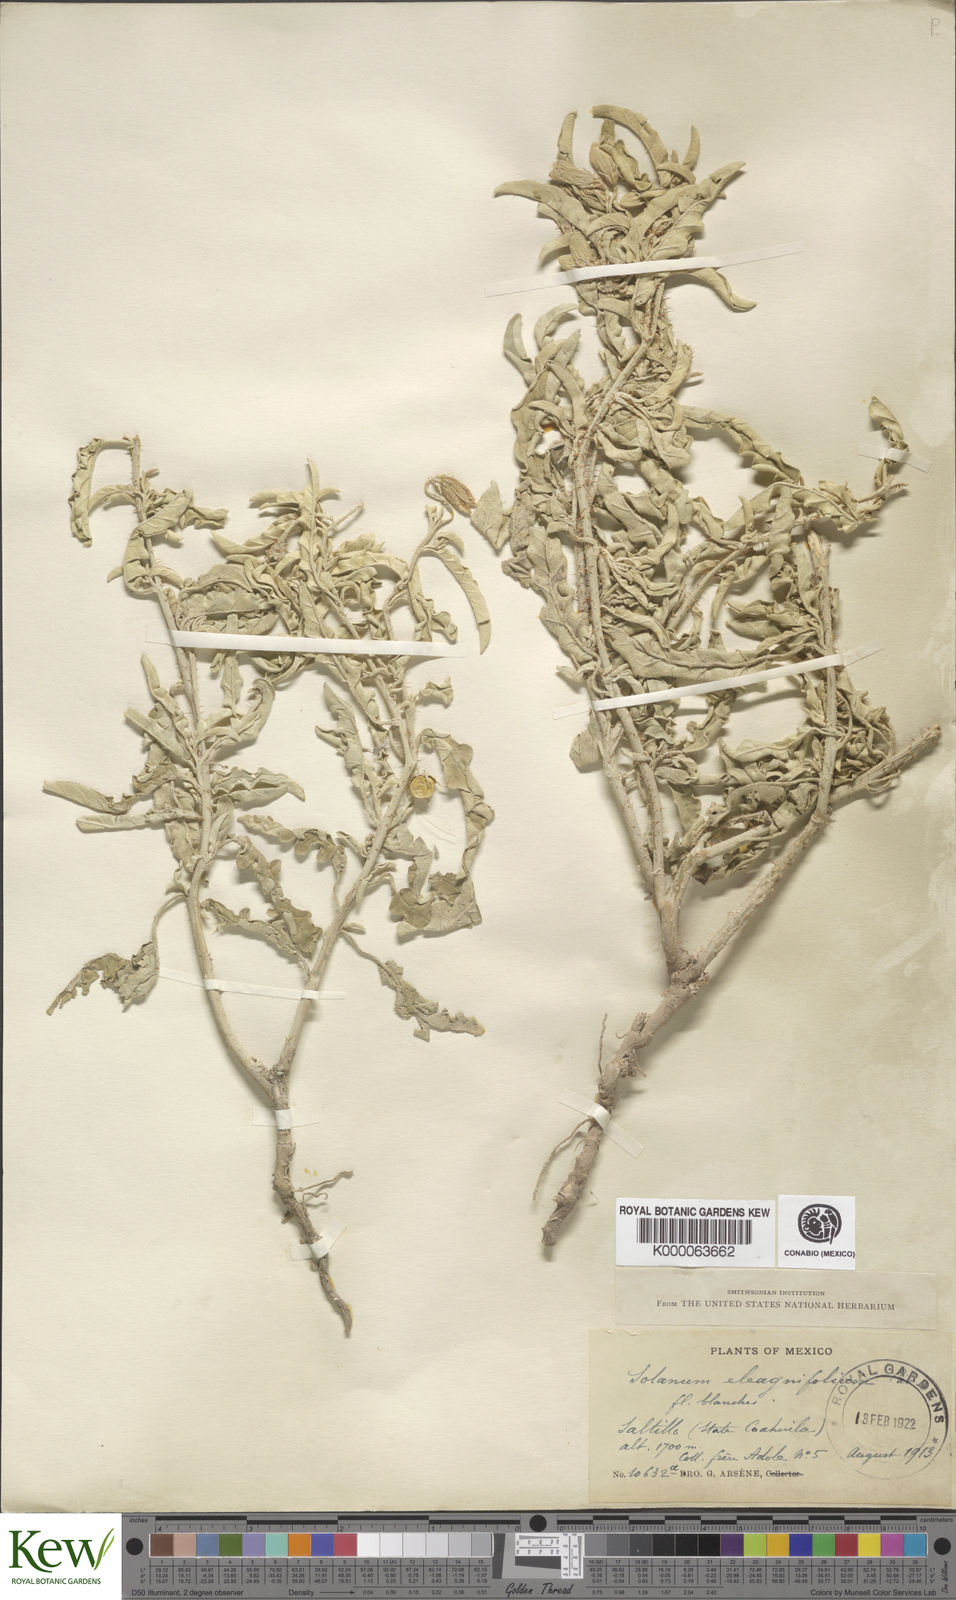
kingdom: Plantae
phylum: Tracheophyta
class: Magnoliopsida
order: Solanales
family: Solanaceae
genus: Solanum
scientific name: Solanum elaeagnifolium
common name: Silverleaf nightshade
